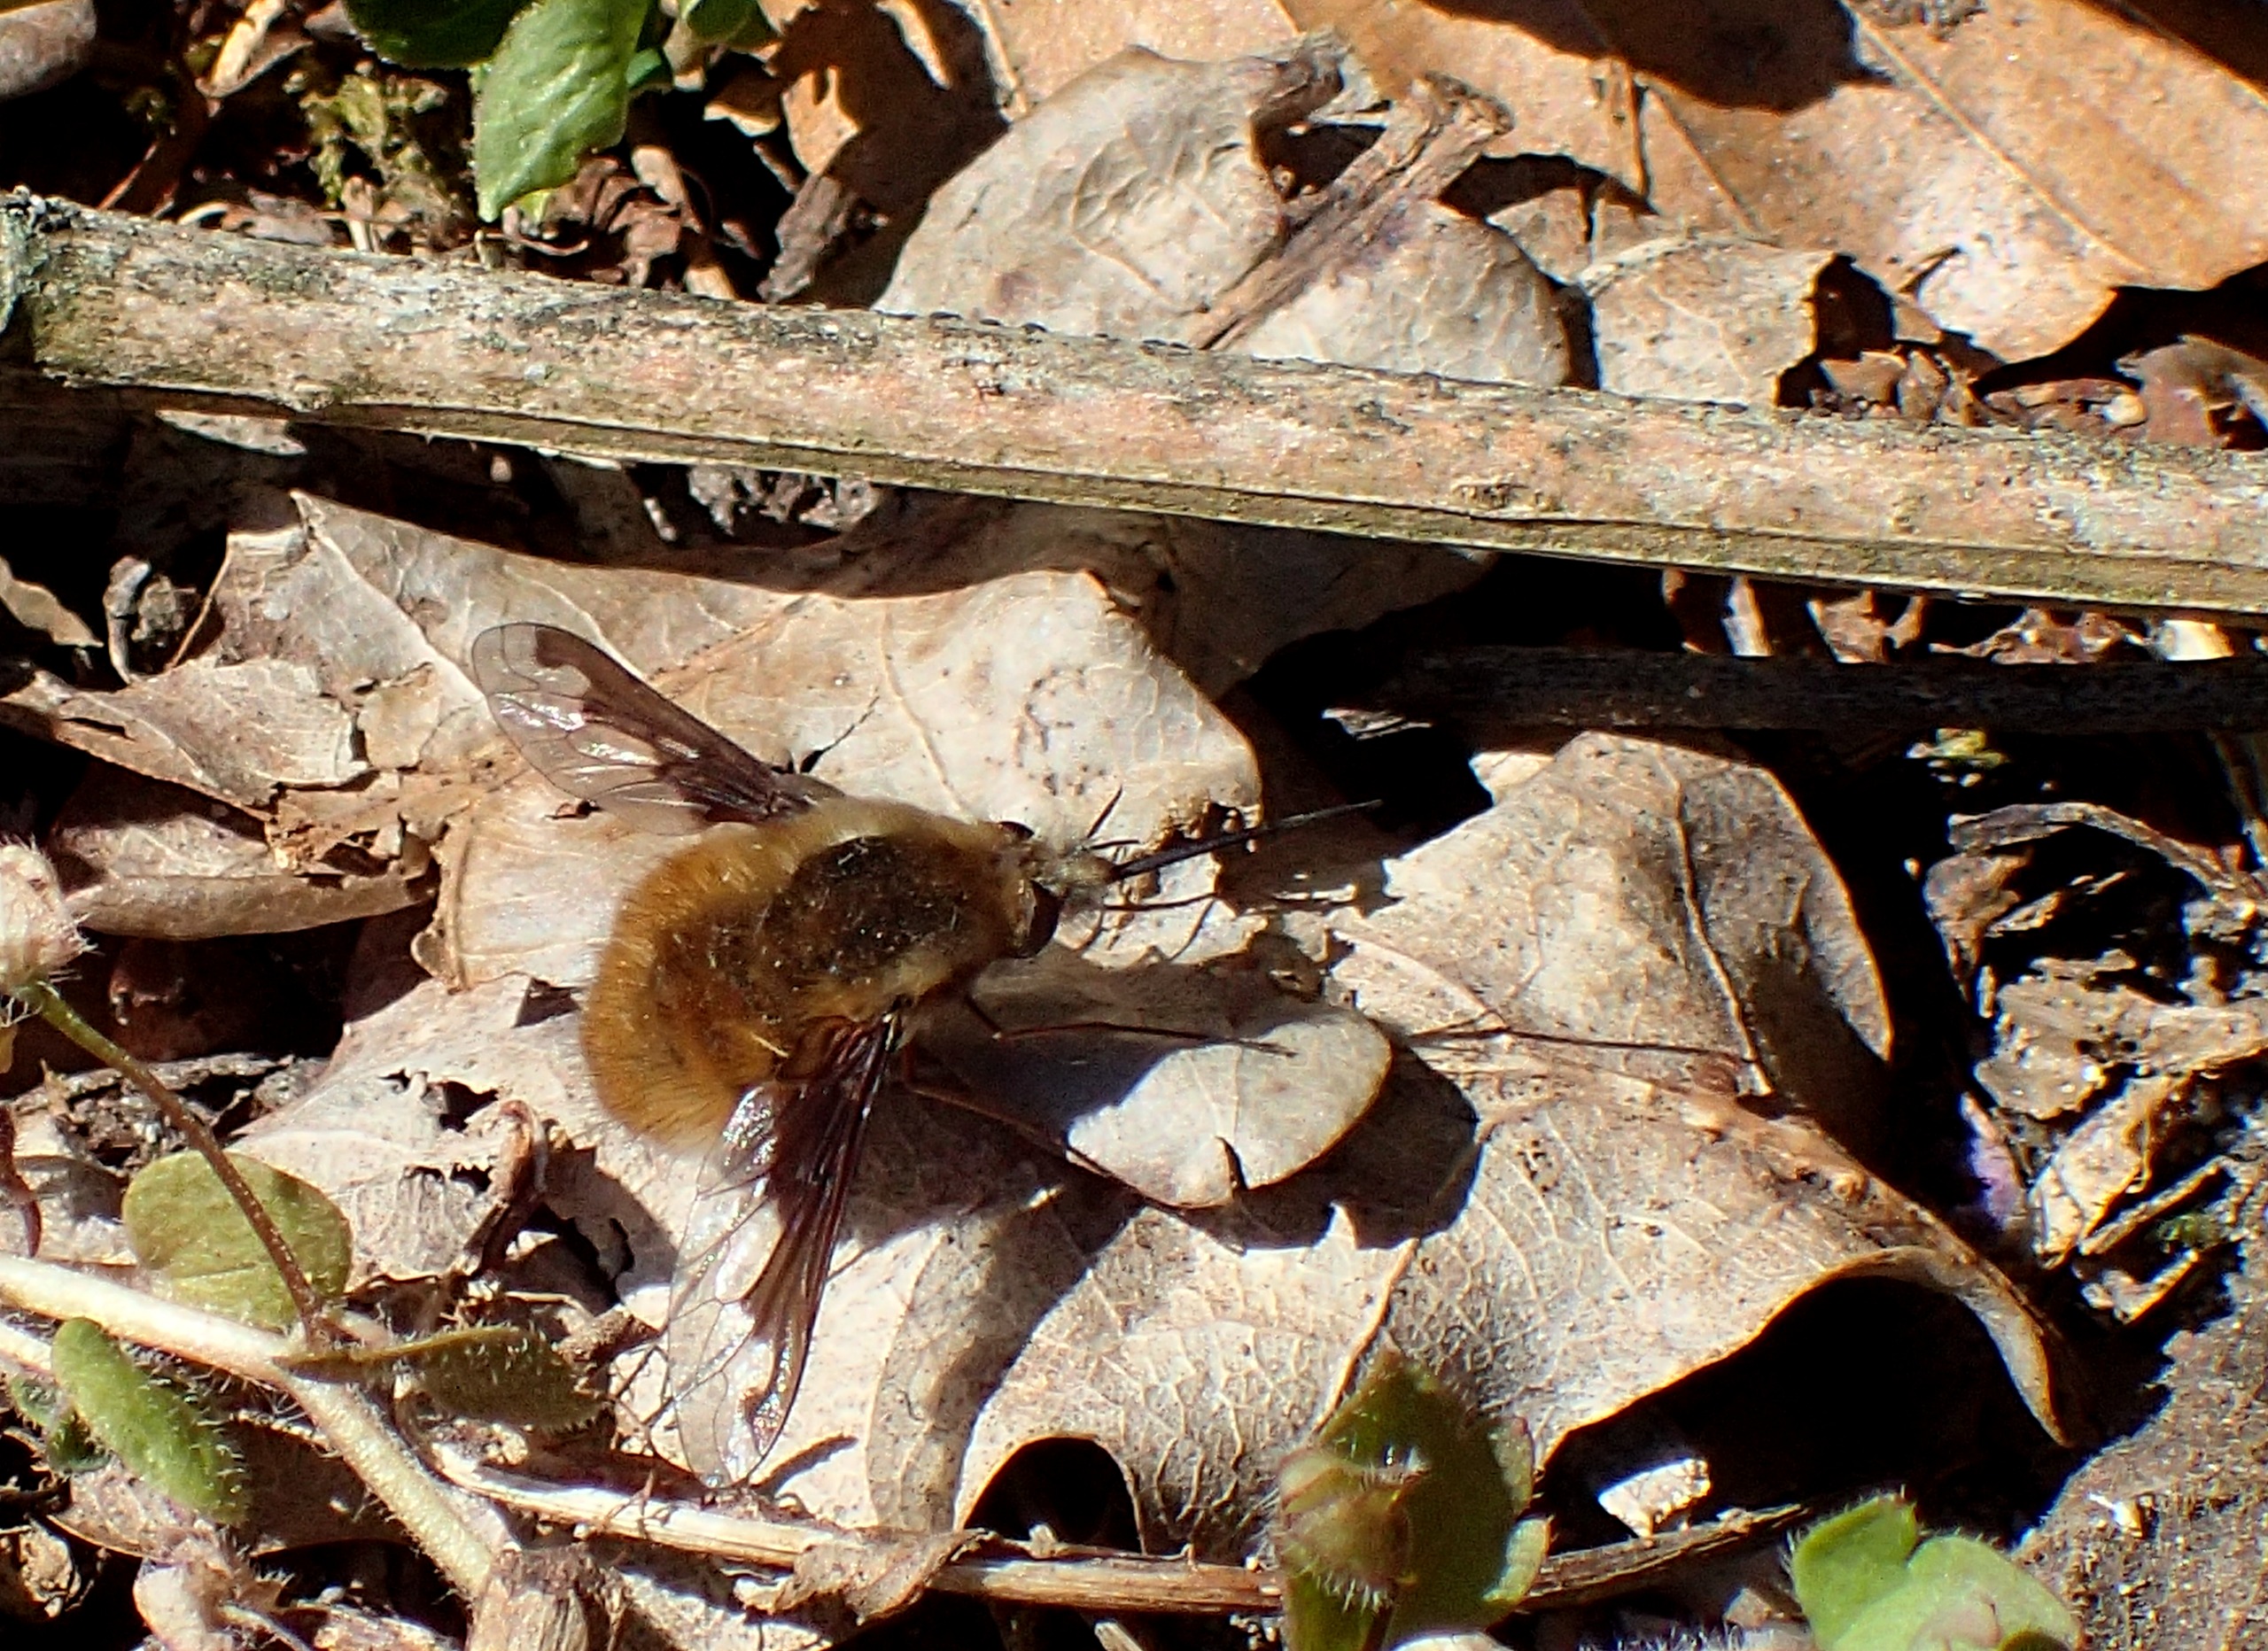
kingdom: Animalia
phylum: Arthropoda
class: Insecta
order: Diptera
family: Bombyliidae
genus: Bombylius
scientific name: Bombylius major
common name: Stor humleflue
